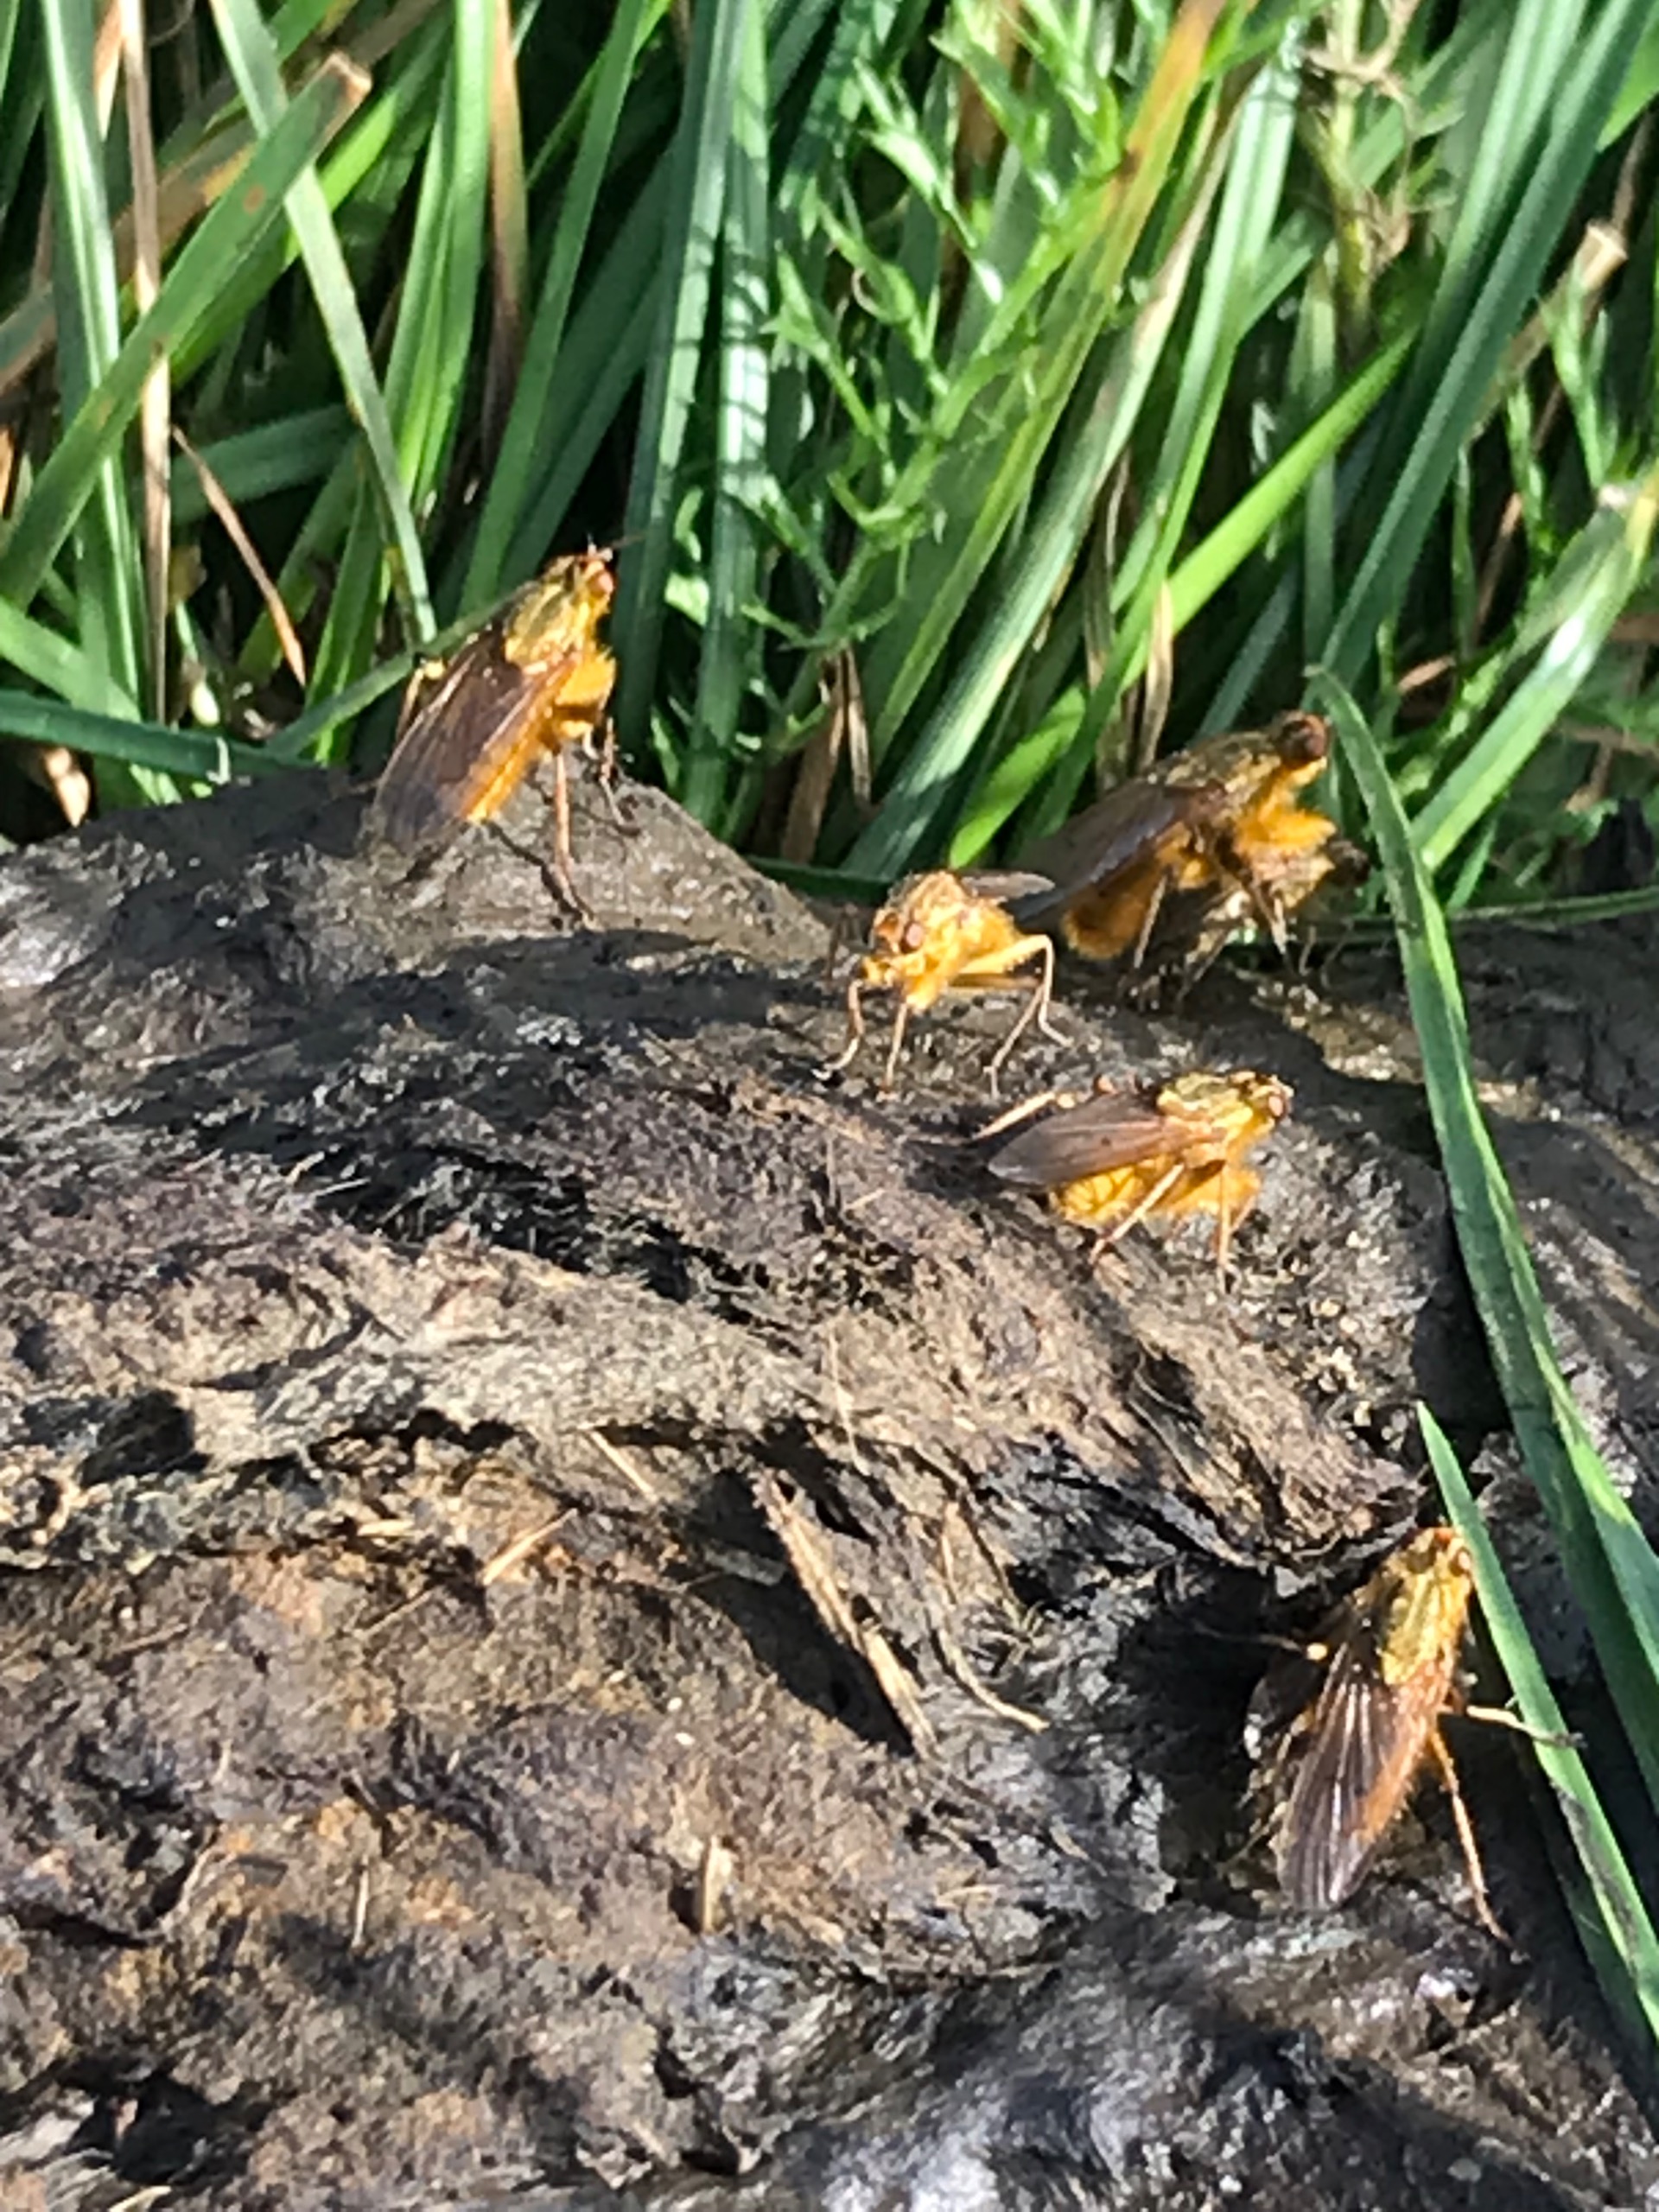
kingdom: Animalia
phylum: Arthropoda
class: Insecta
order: Diptera
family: Scathophagidae
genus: Scathophaga
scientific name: Scathophaga stercoraria
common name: Almindelig gødningsflue
